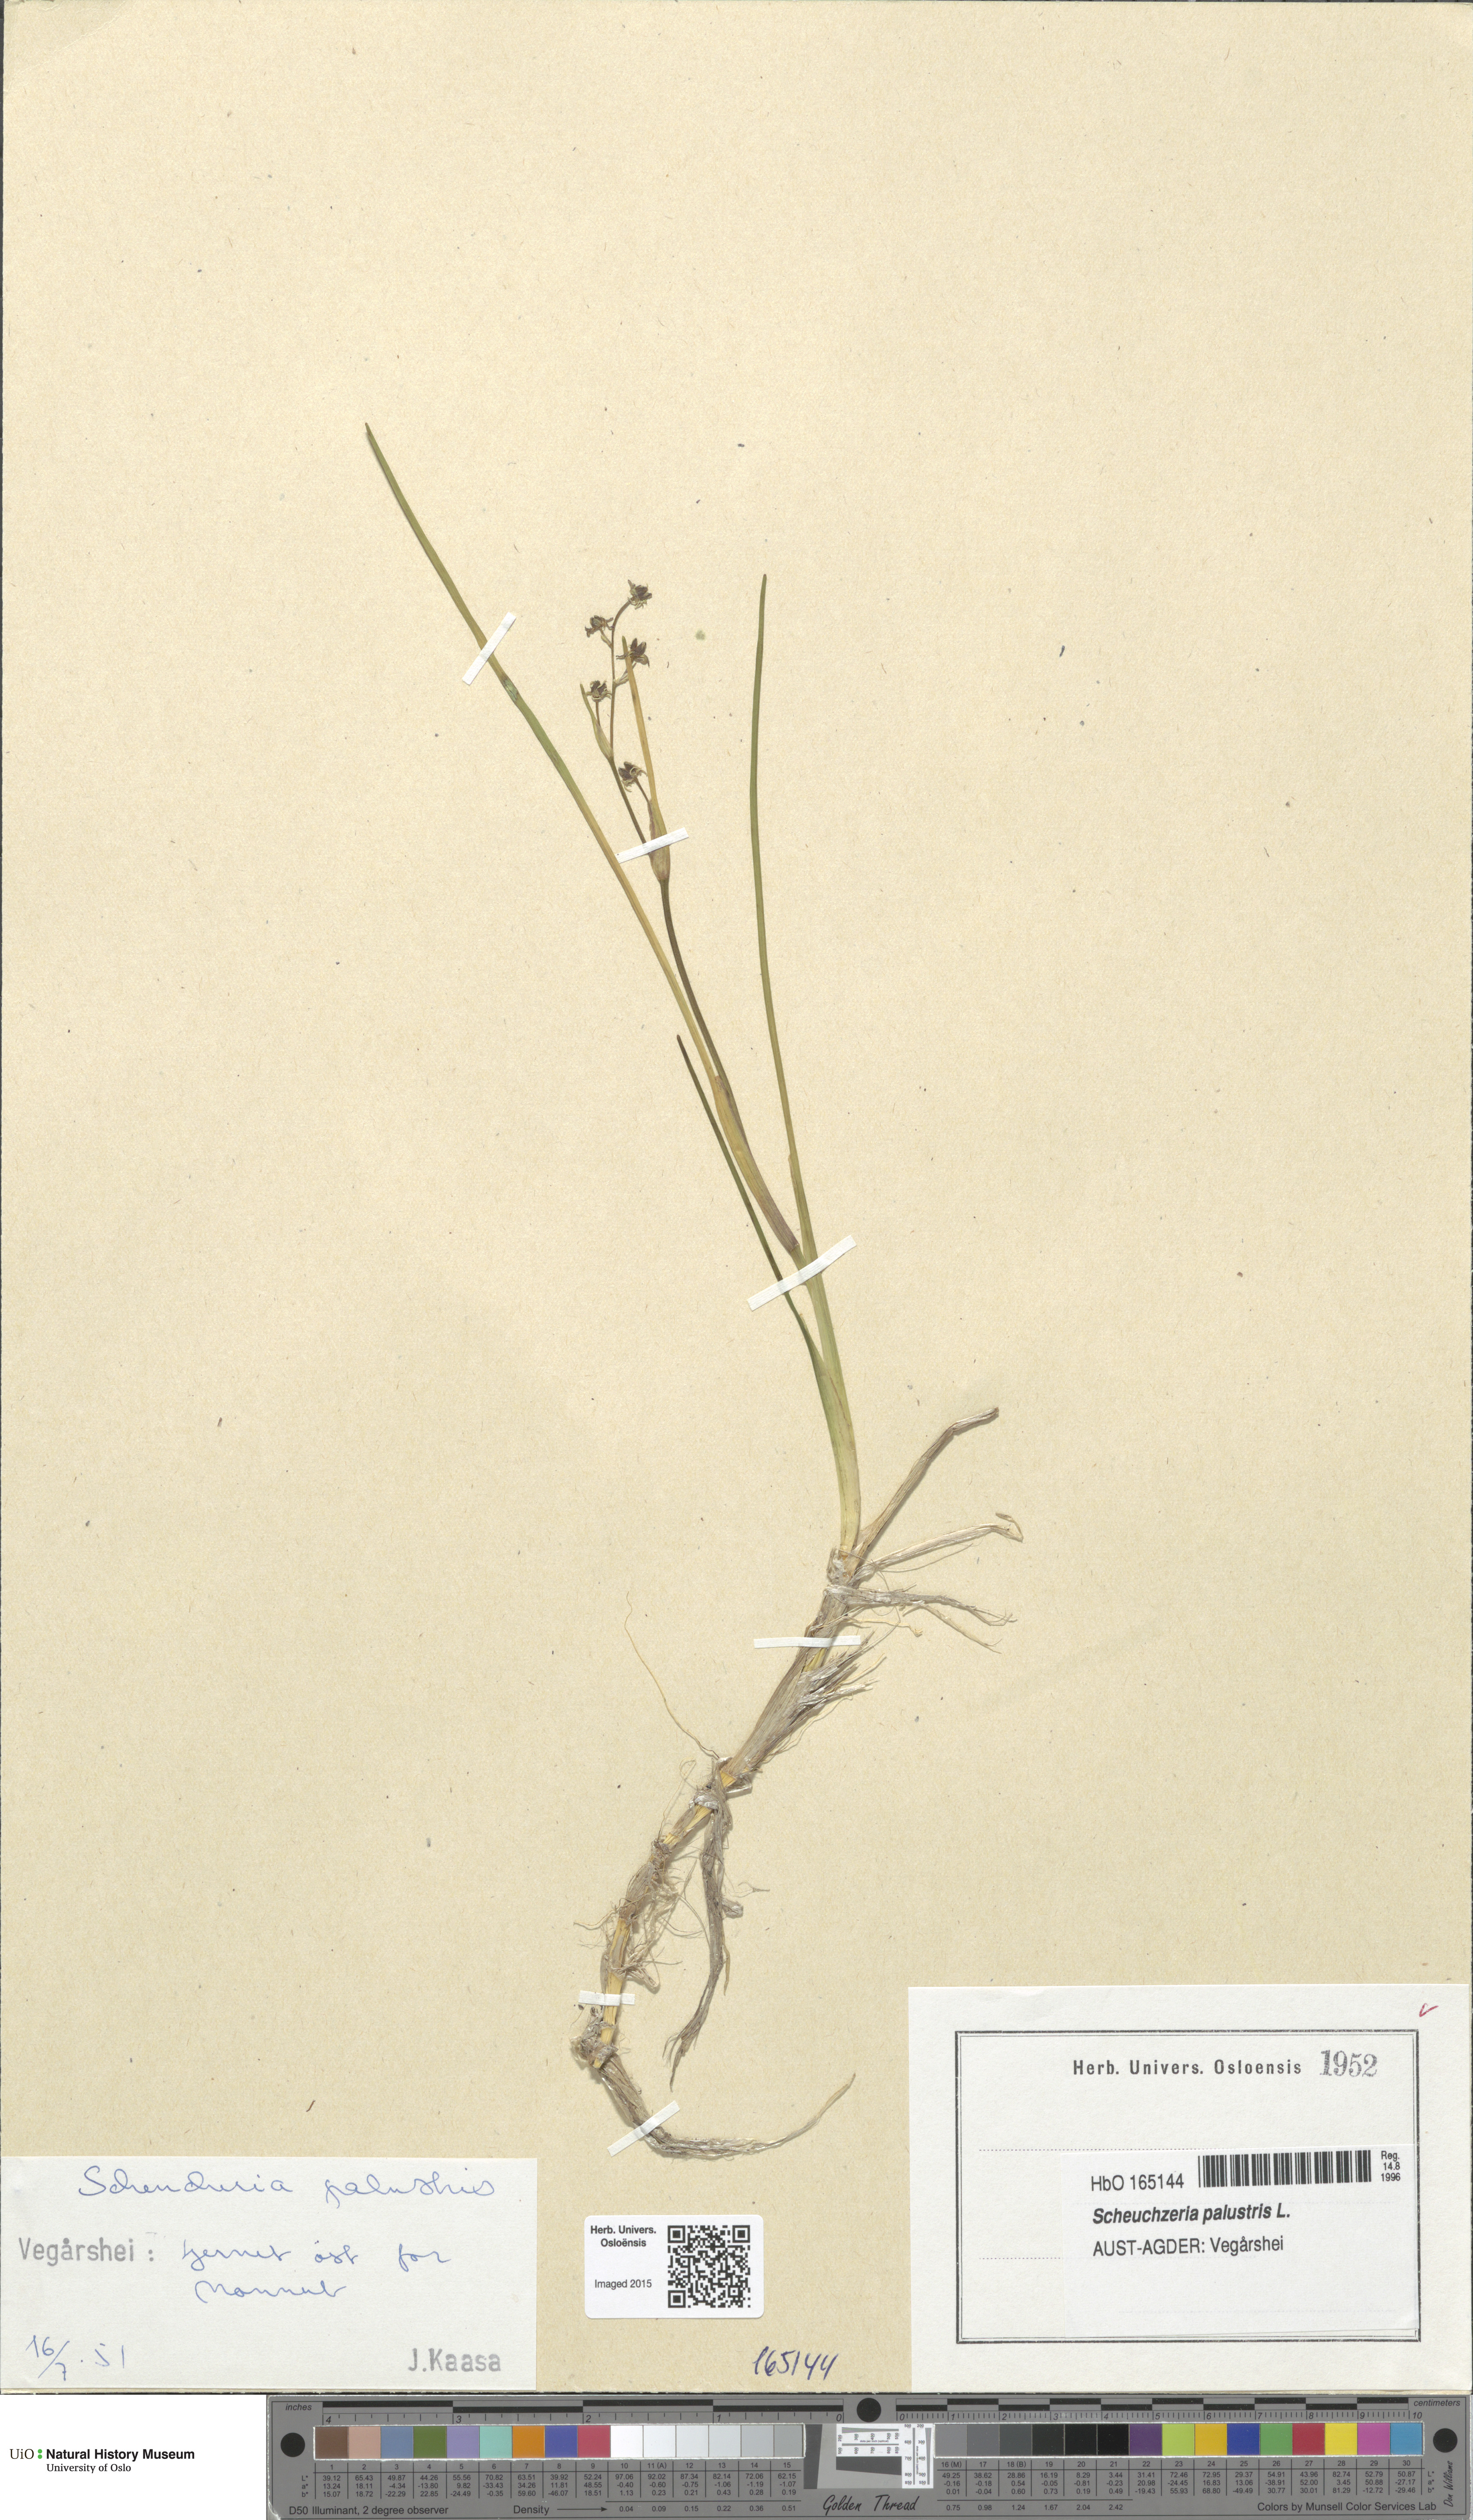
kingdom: Plantae
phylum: Tracheophyta
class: Liliopsida
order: Alismatales
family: Scheuchzeriaceae
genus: Scheuchzeria
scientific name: Scheuchzeria palustris
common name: Rannoch-rush
